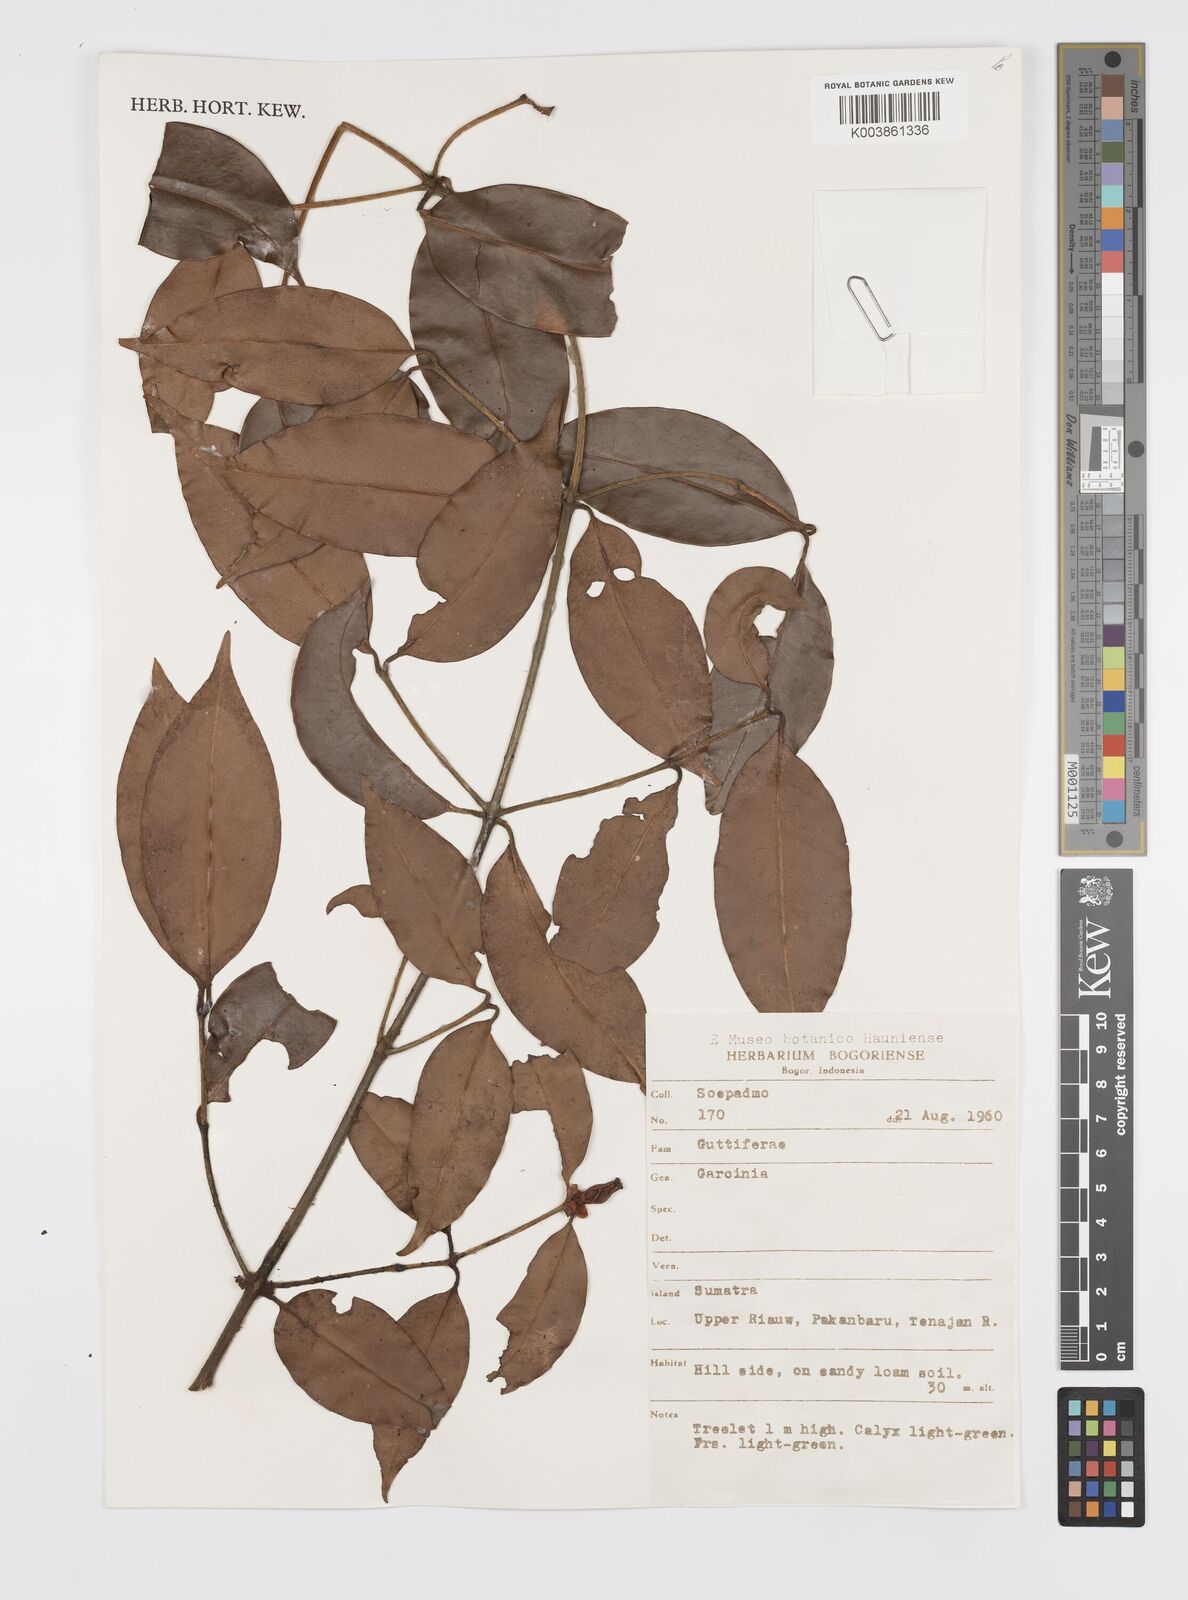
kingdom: Plantae
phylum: Tracheophyta
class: Magnoliopsida
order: Malpighiales
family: Clusiaceae
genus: Garcinia
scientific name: Garcinia
